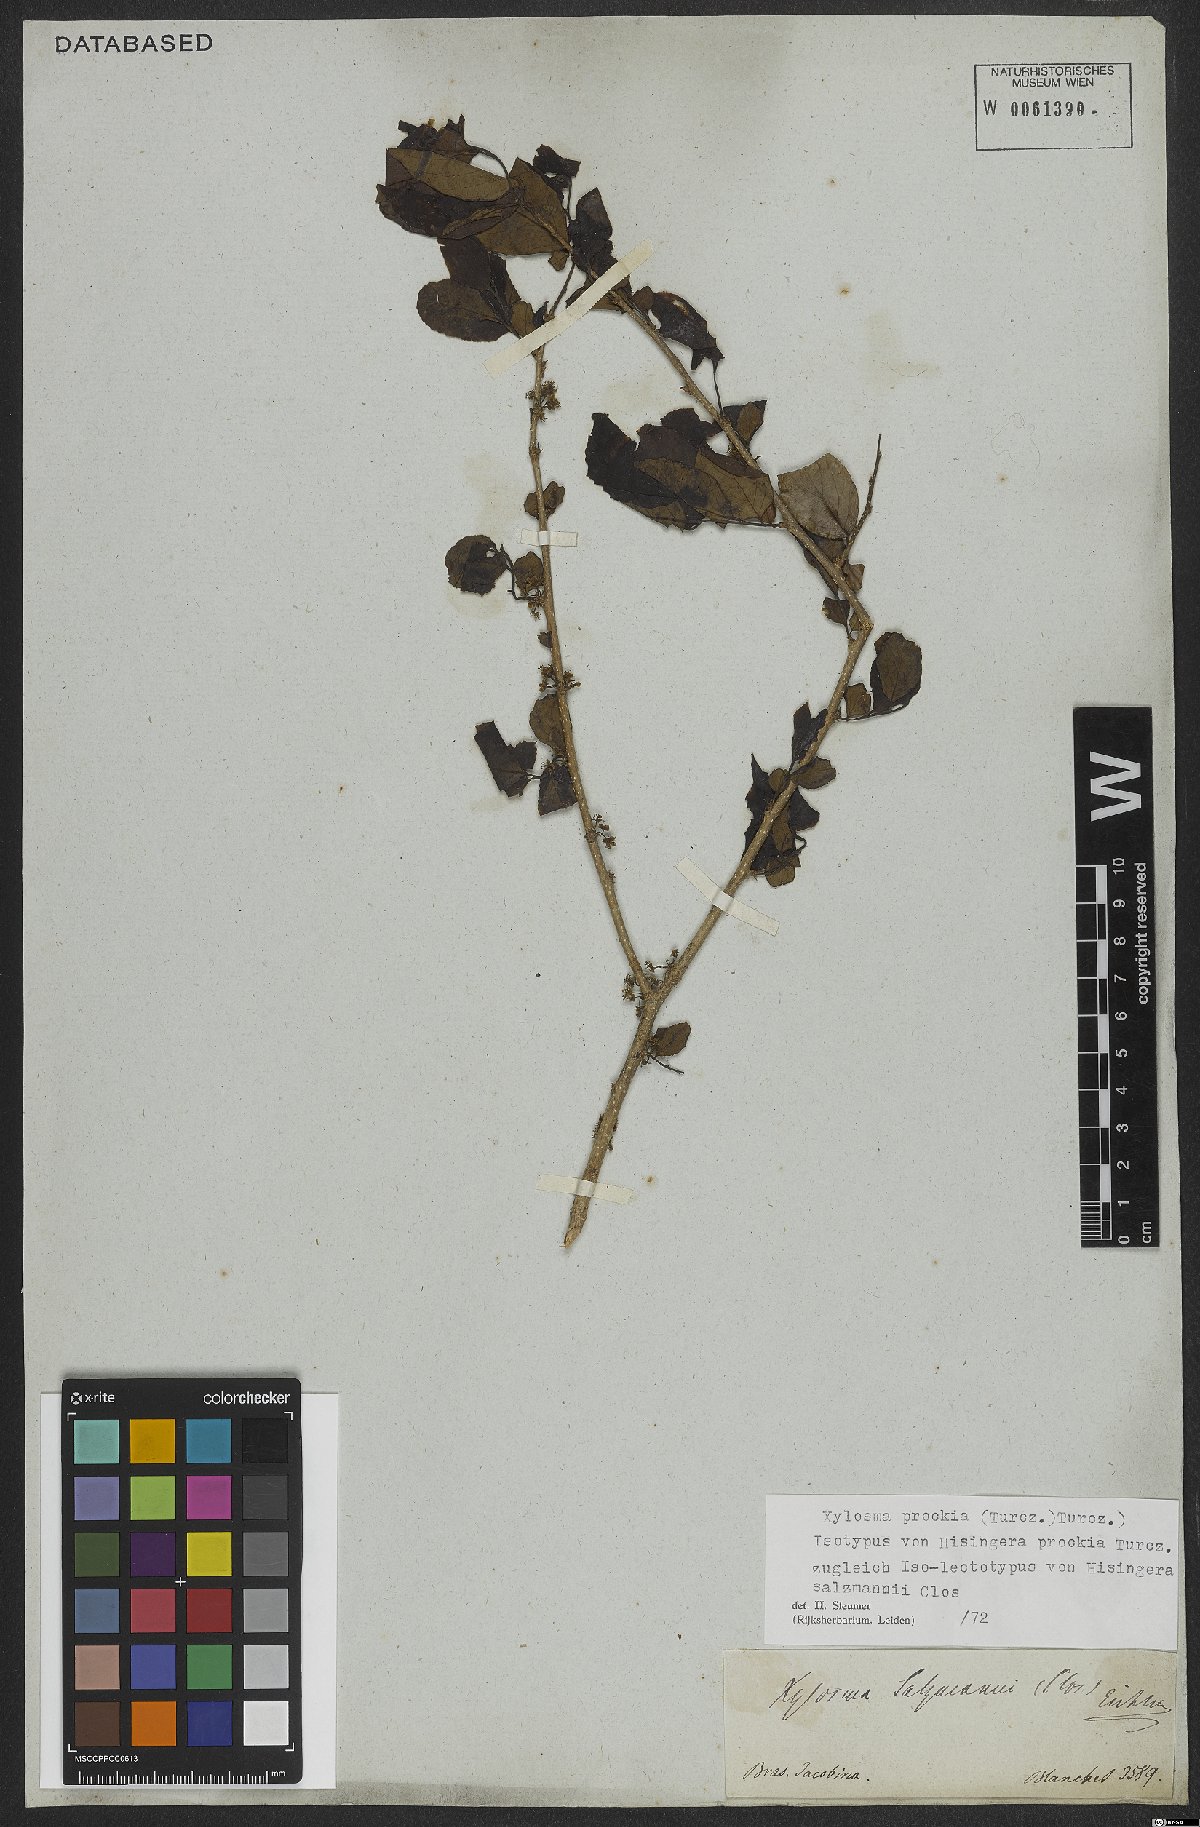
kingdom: Plantae
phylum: Tracheophyta
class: Magnoliopsida
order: Malpighiales
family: Salicaceae
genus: Xylosma
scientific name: Xylosma prockia
